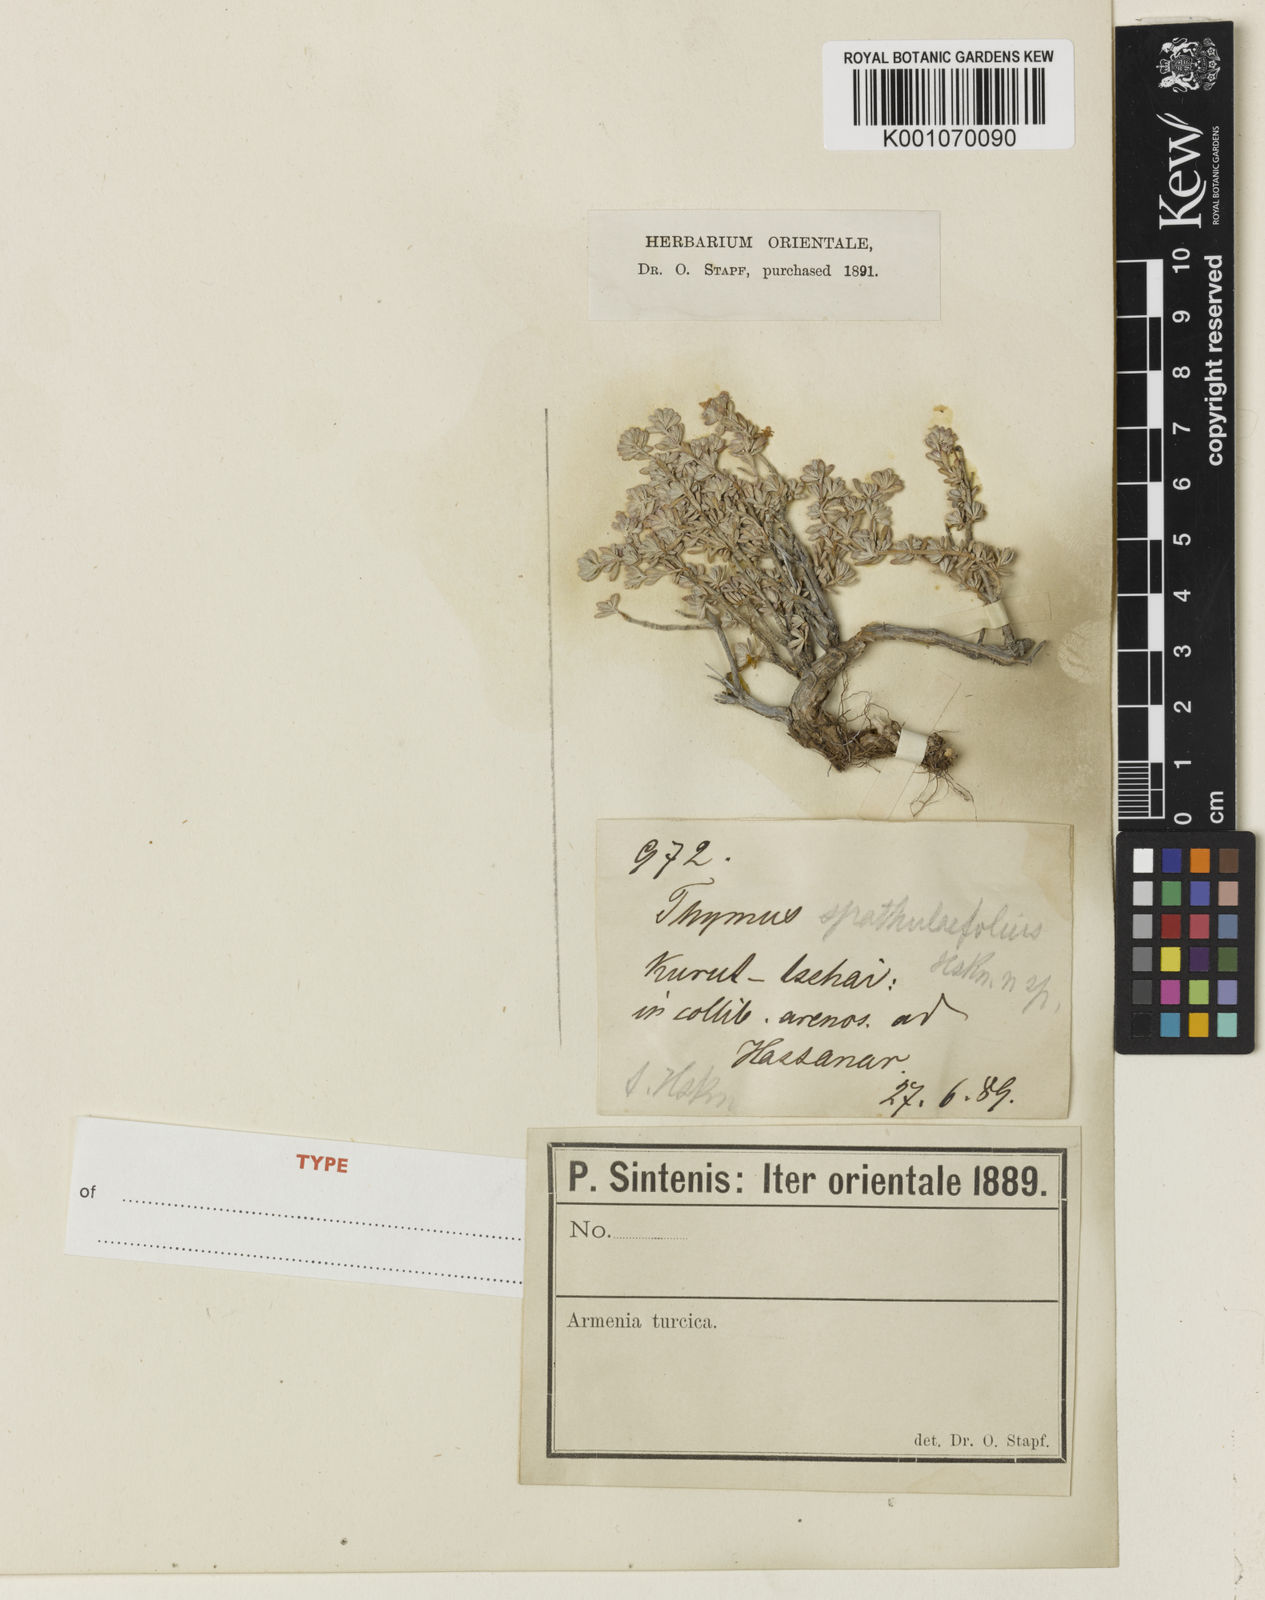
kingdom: Plantae
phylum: Tracheophyta
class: Magnoliopsida
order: Lamiales
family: Lamiaceae
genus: Thymus
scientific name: Thymus spathulifolius
